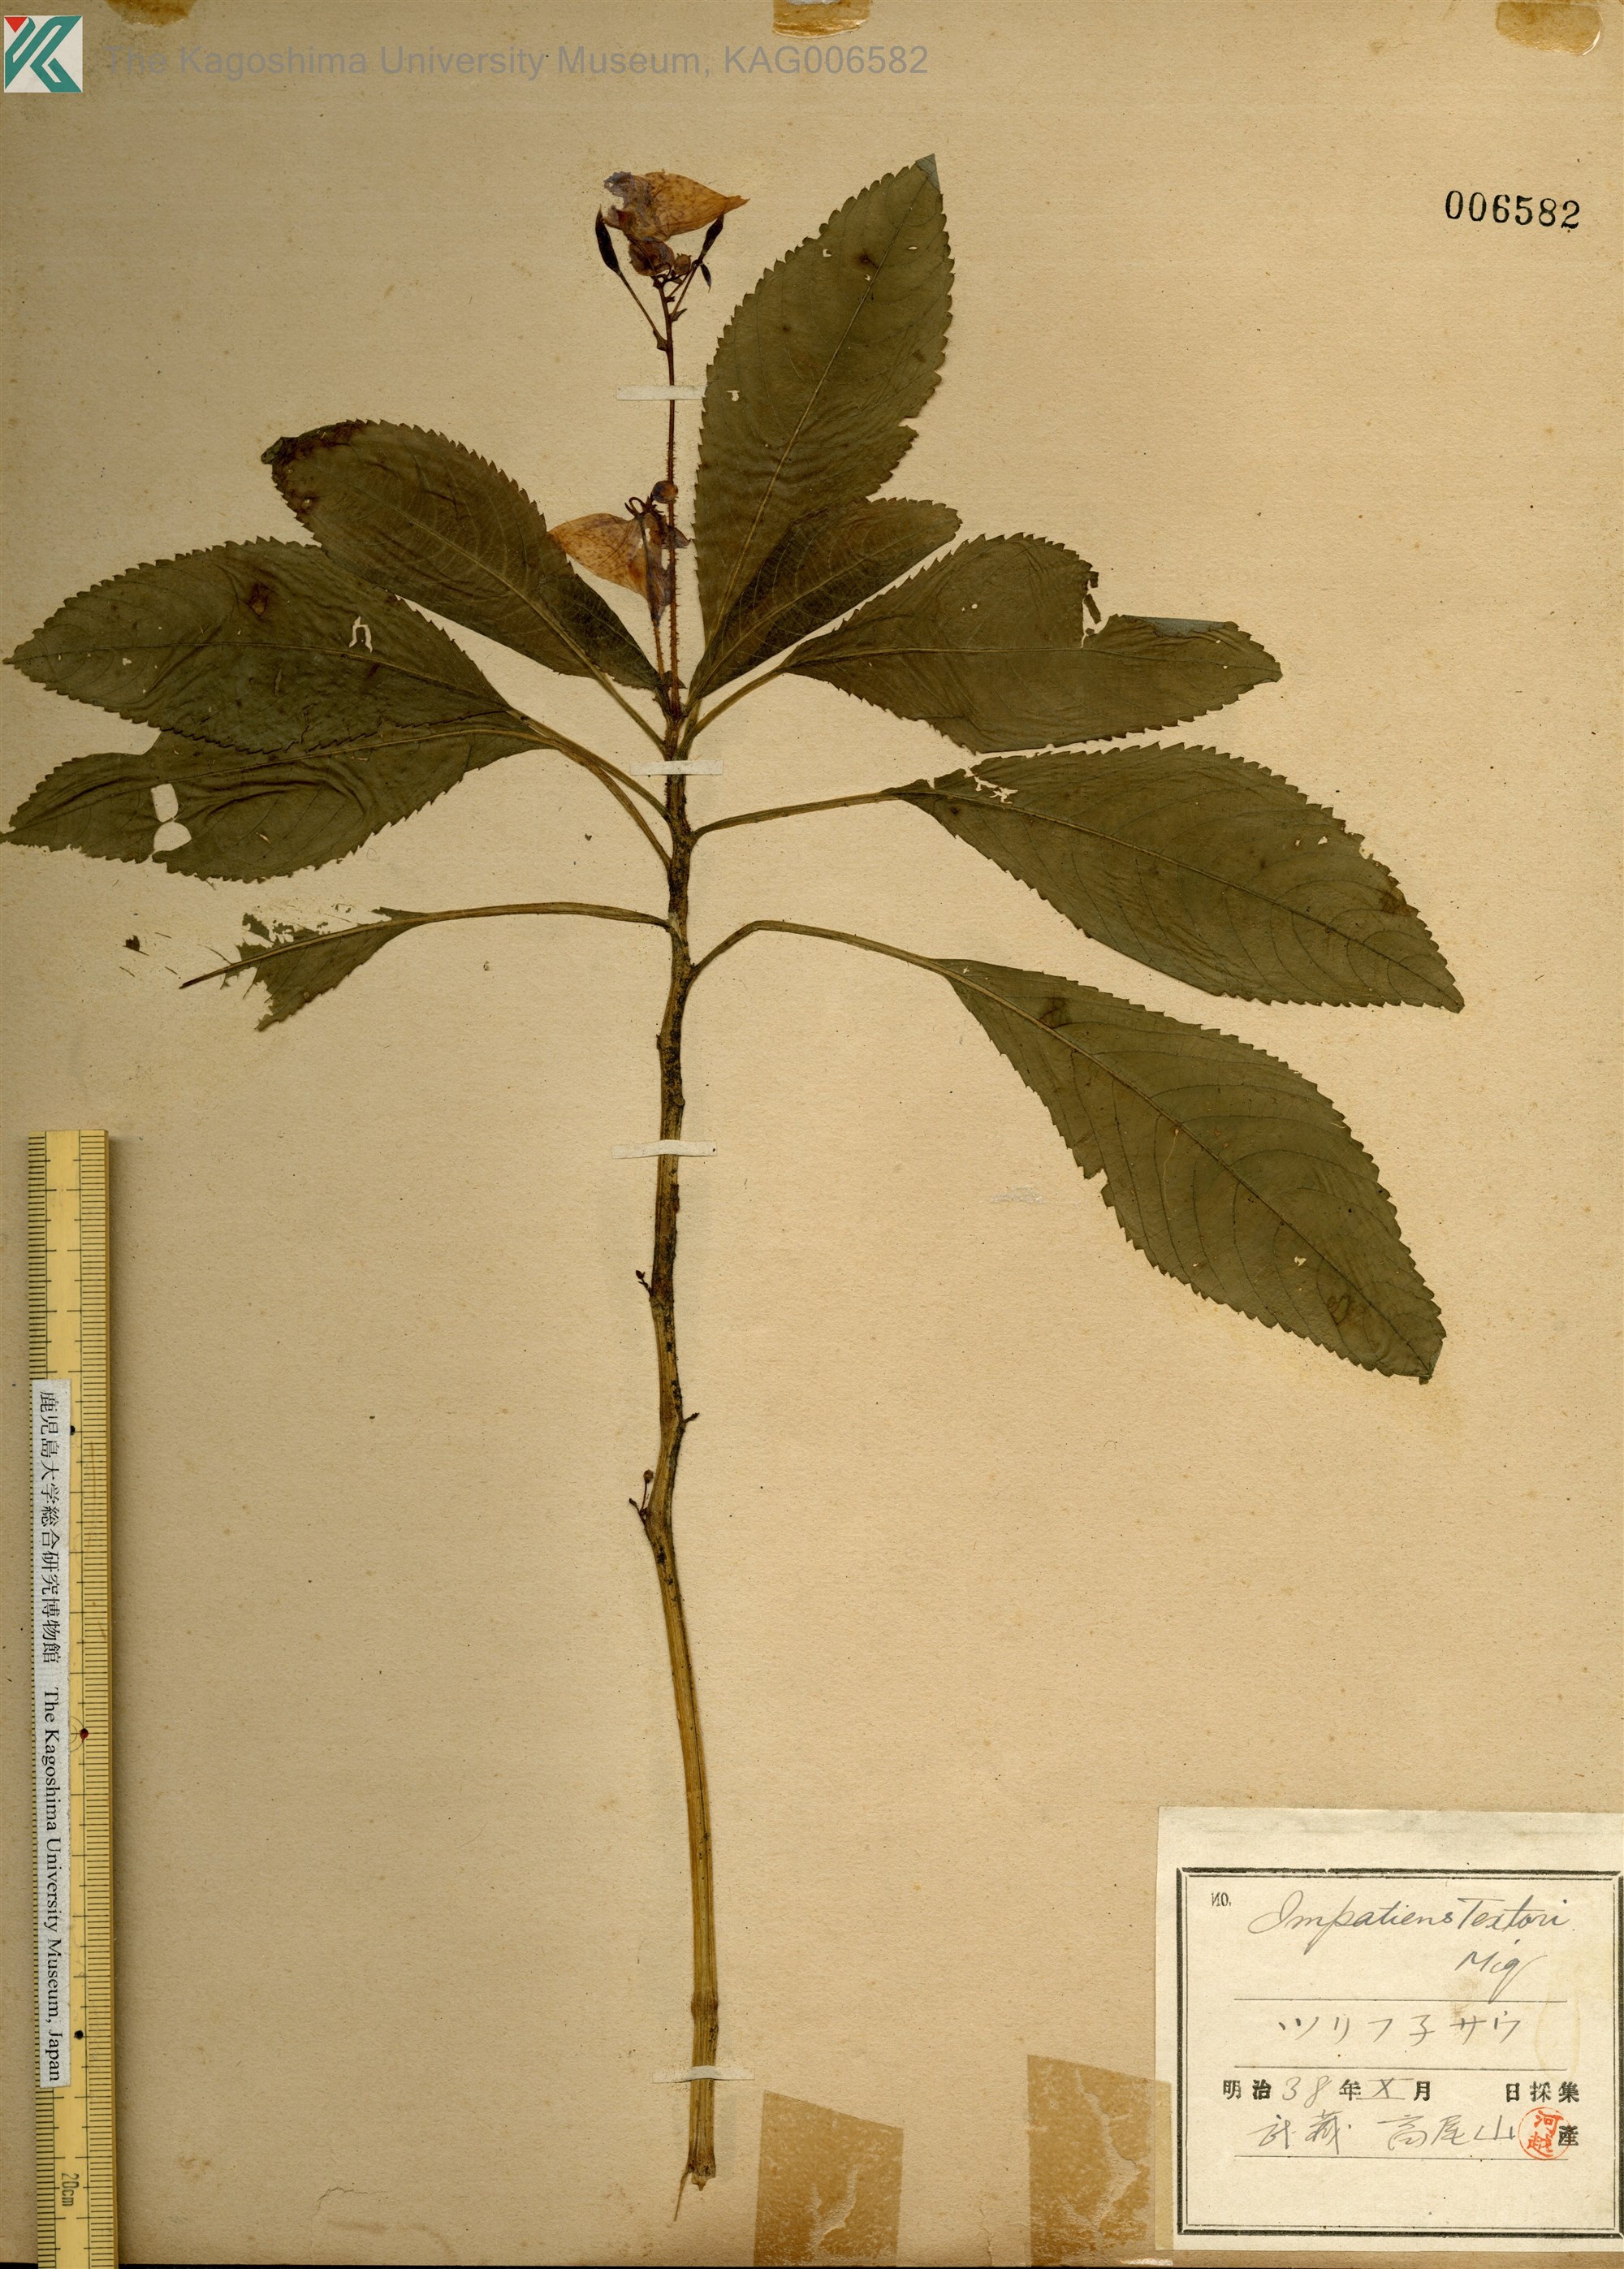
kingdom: Plantae
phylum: Tracheophyta
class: Magnoliopsida
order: Ericales
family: Balsaminaceae
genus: Impatiens
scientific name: Impatiens textorii
